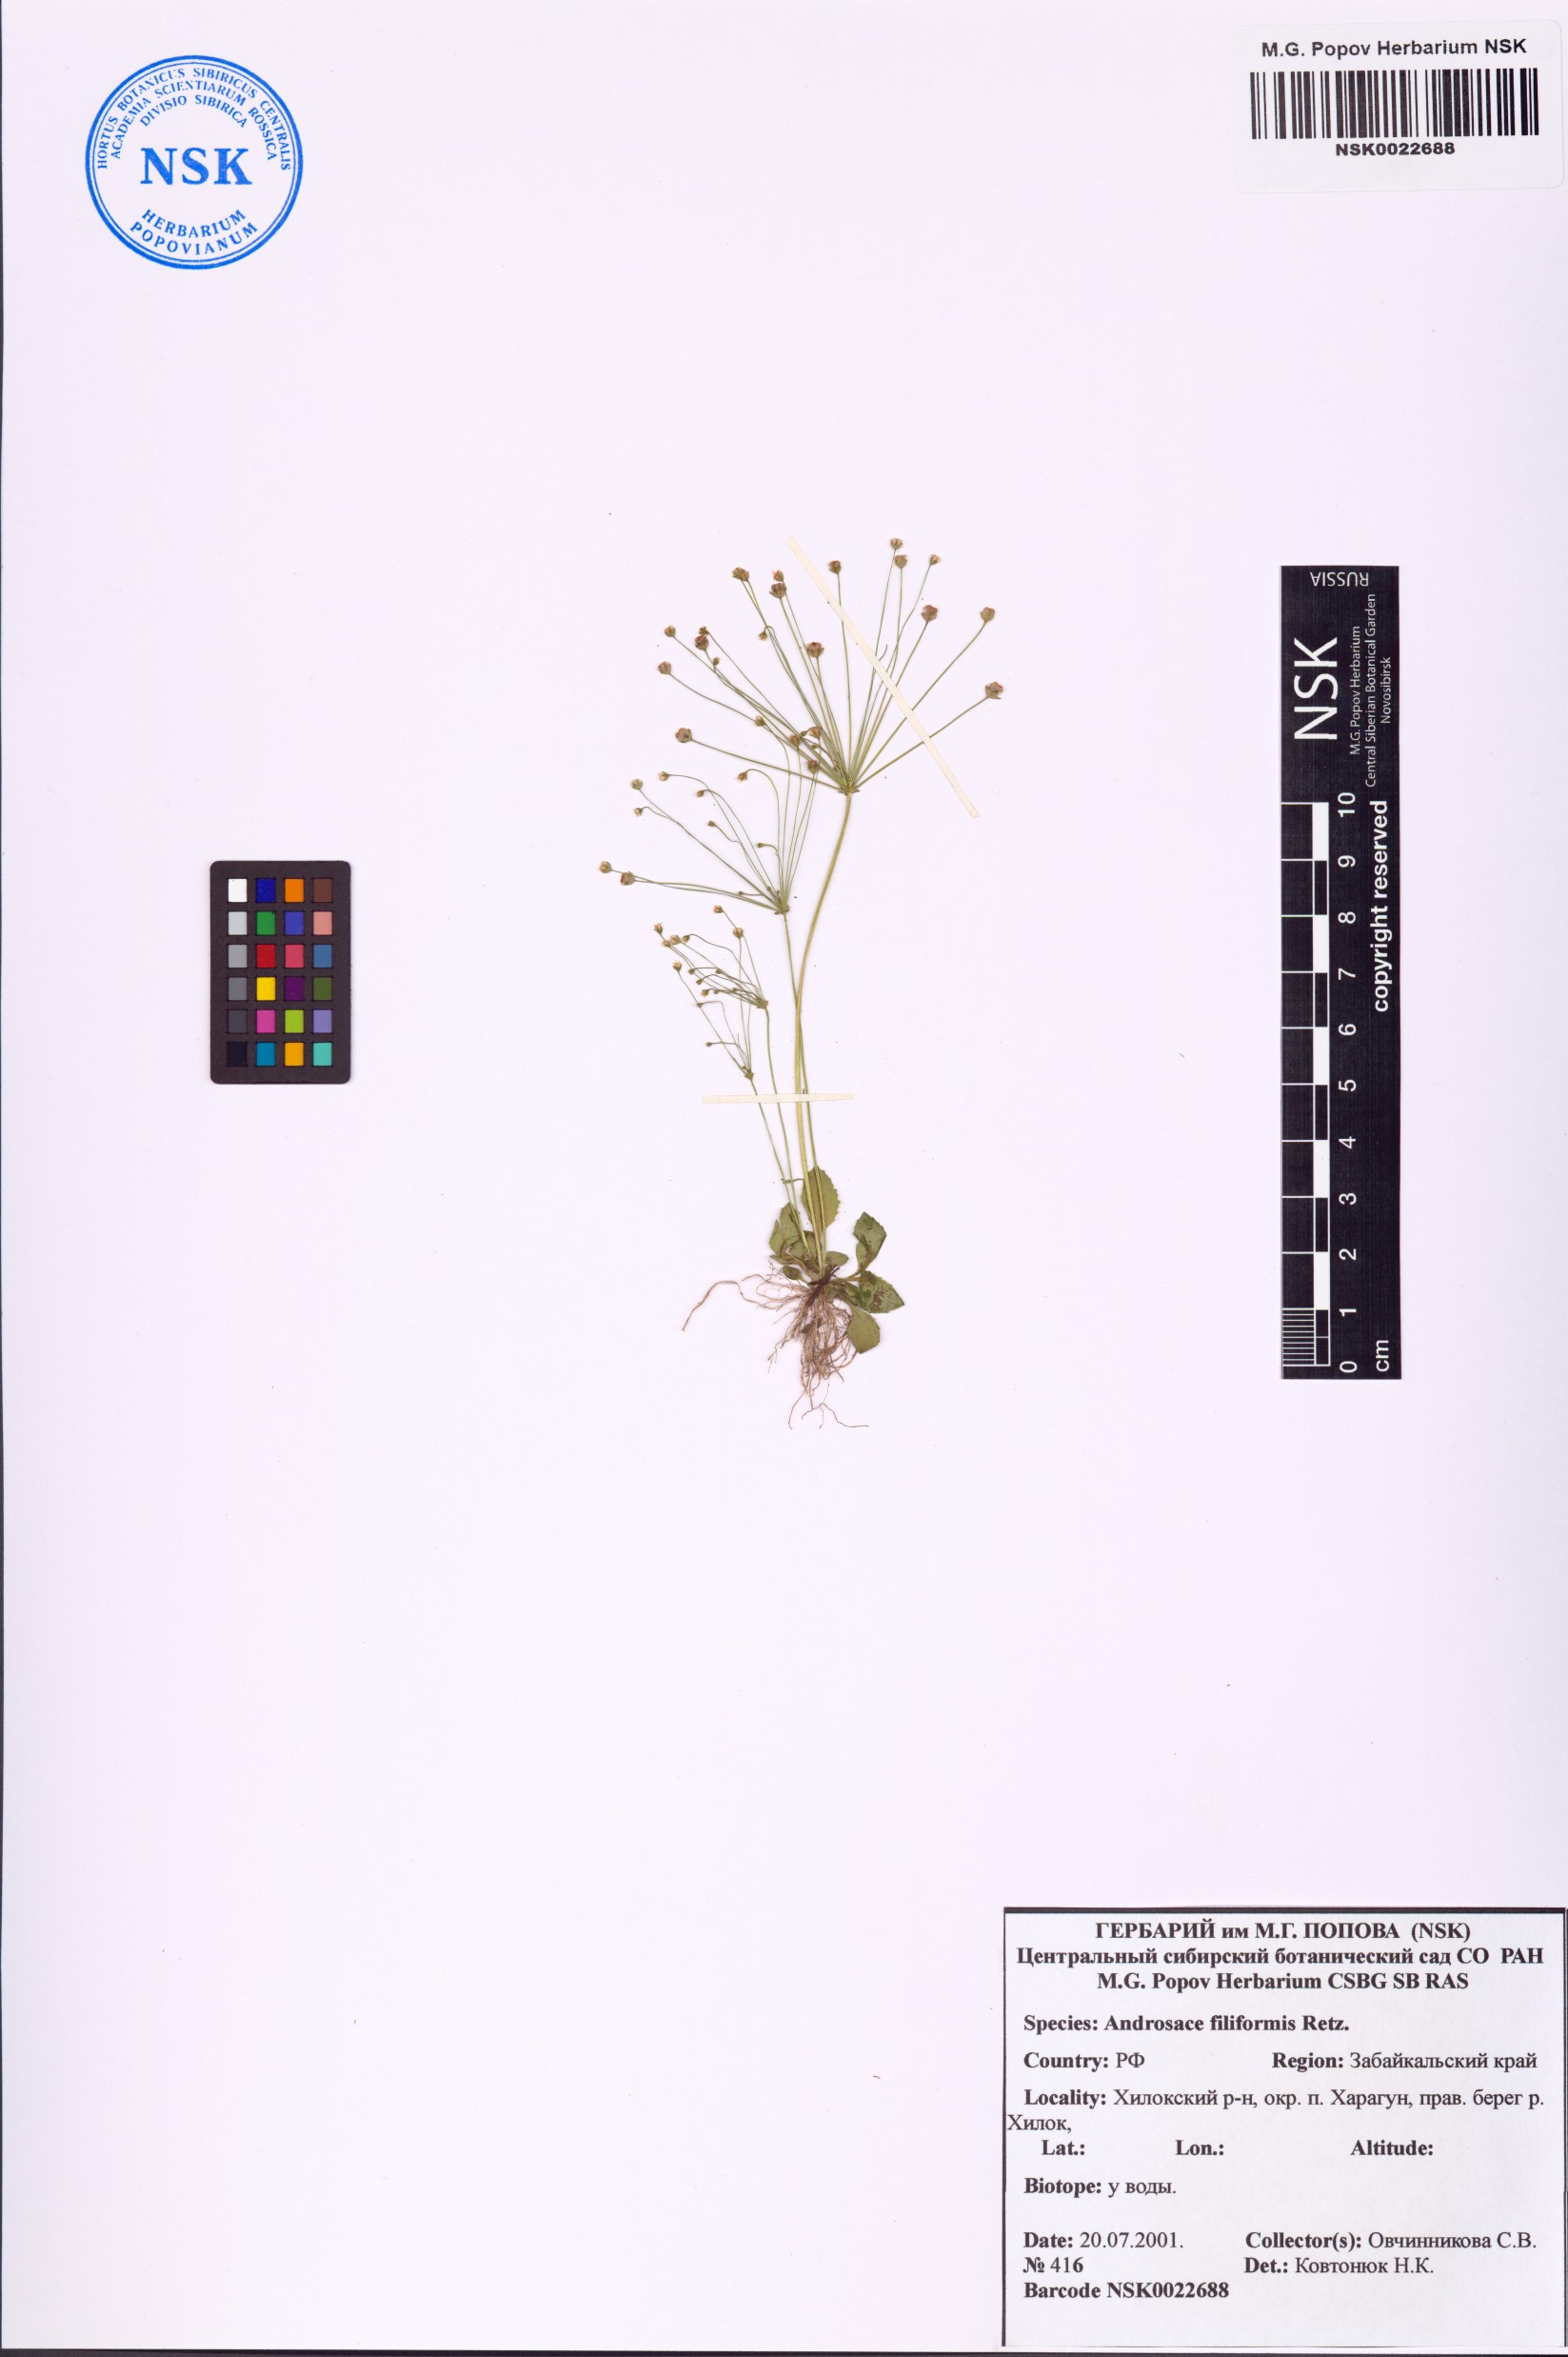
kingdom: Plantae
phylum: Tracheophyta
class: Magnoliopsida
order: Ericales
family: Primulaceae
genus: Androsace
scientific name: Androsace filiformis
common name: Filiform rock jasmine
